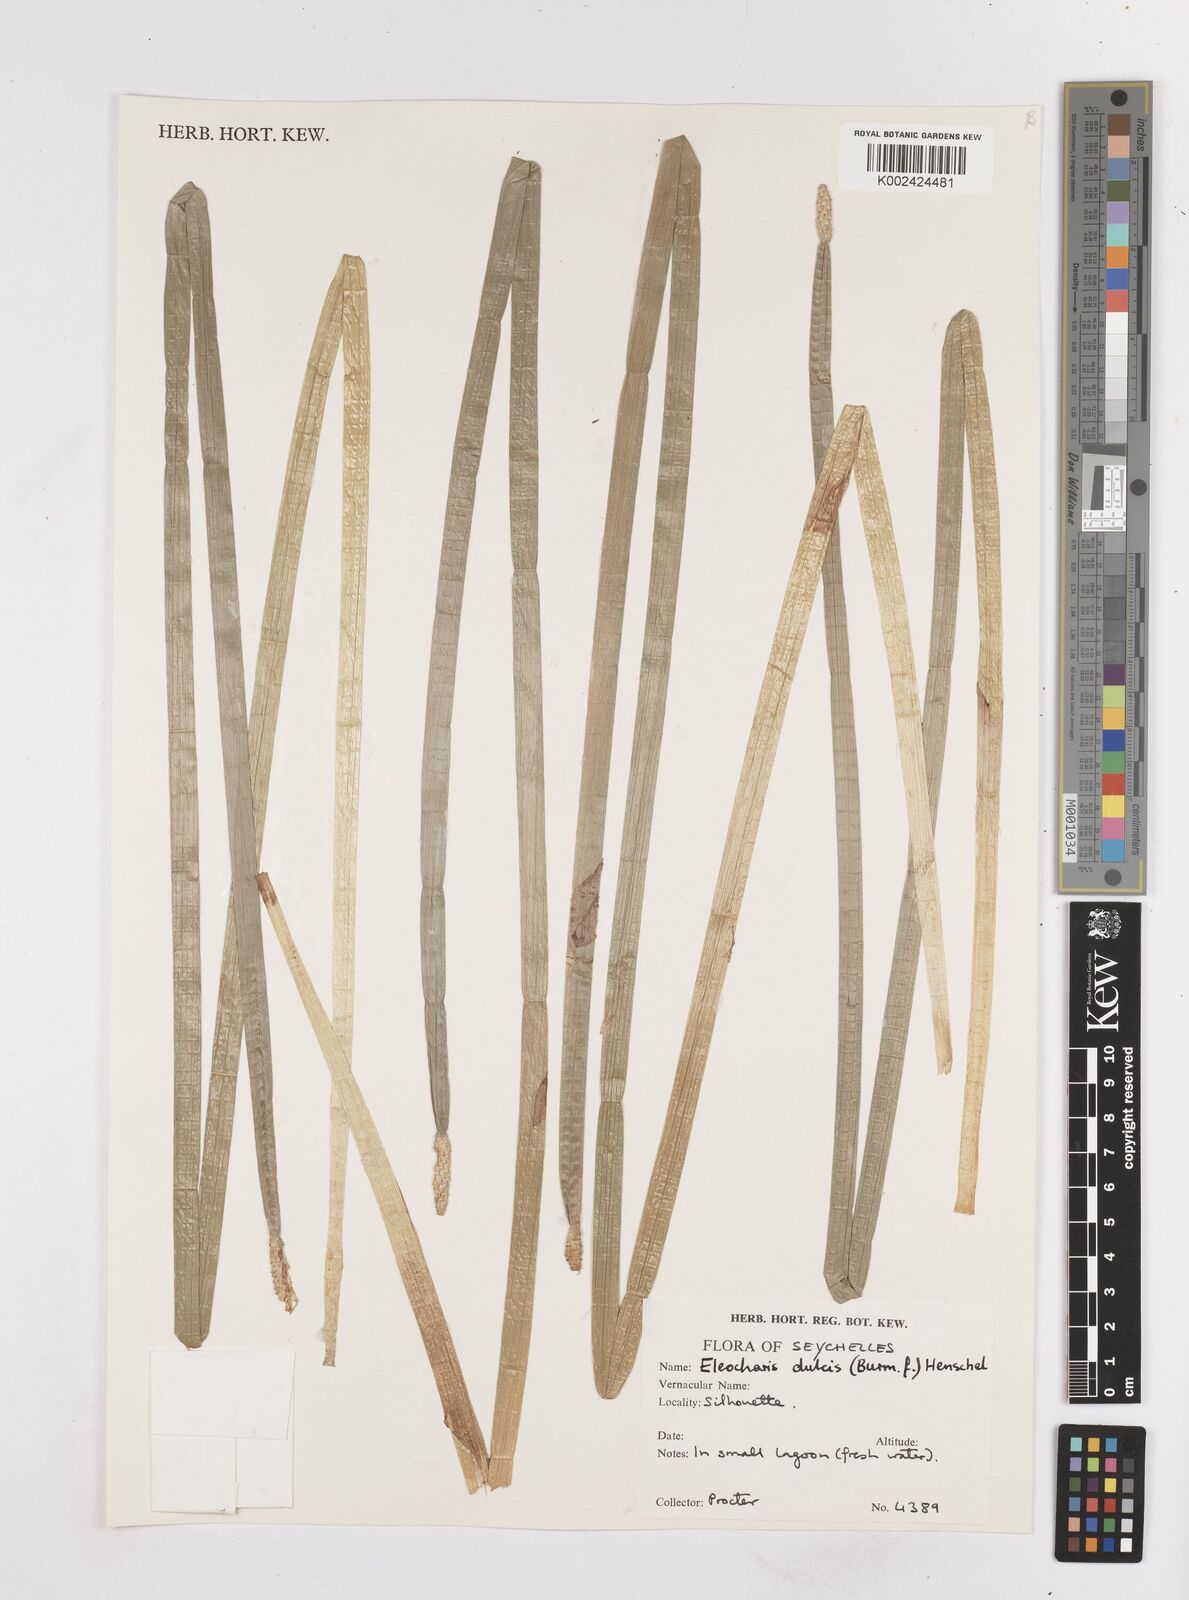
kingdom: Plantae
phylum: Tracheophyta
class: Liliopsida
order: Poales
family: Cyperaceae
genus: Eleocharis
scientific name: Eleocharis dulcis
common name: Chinese water chestnut
